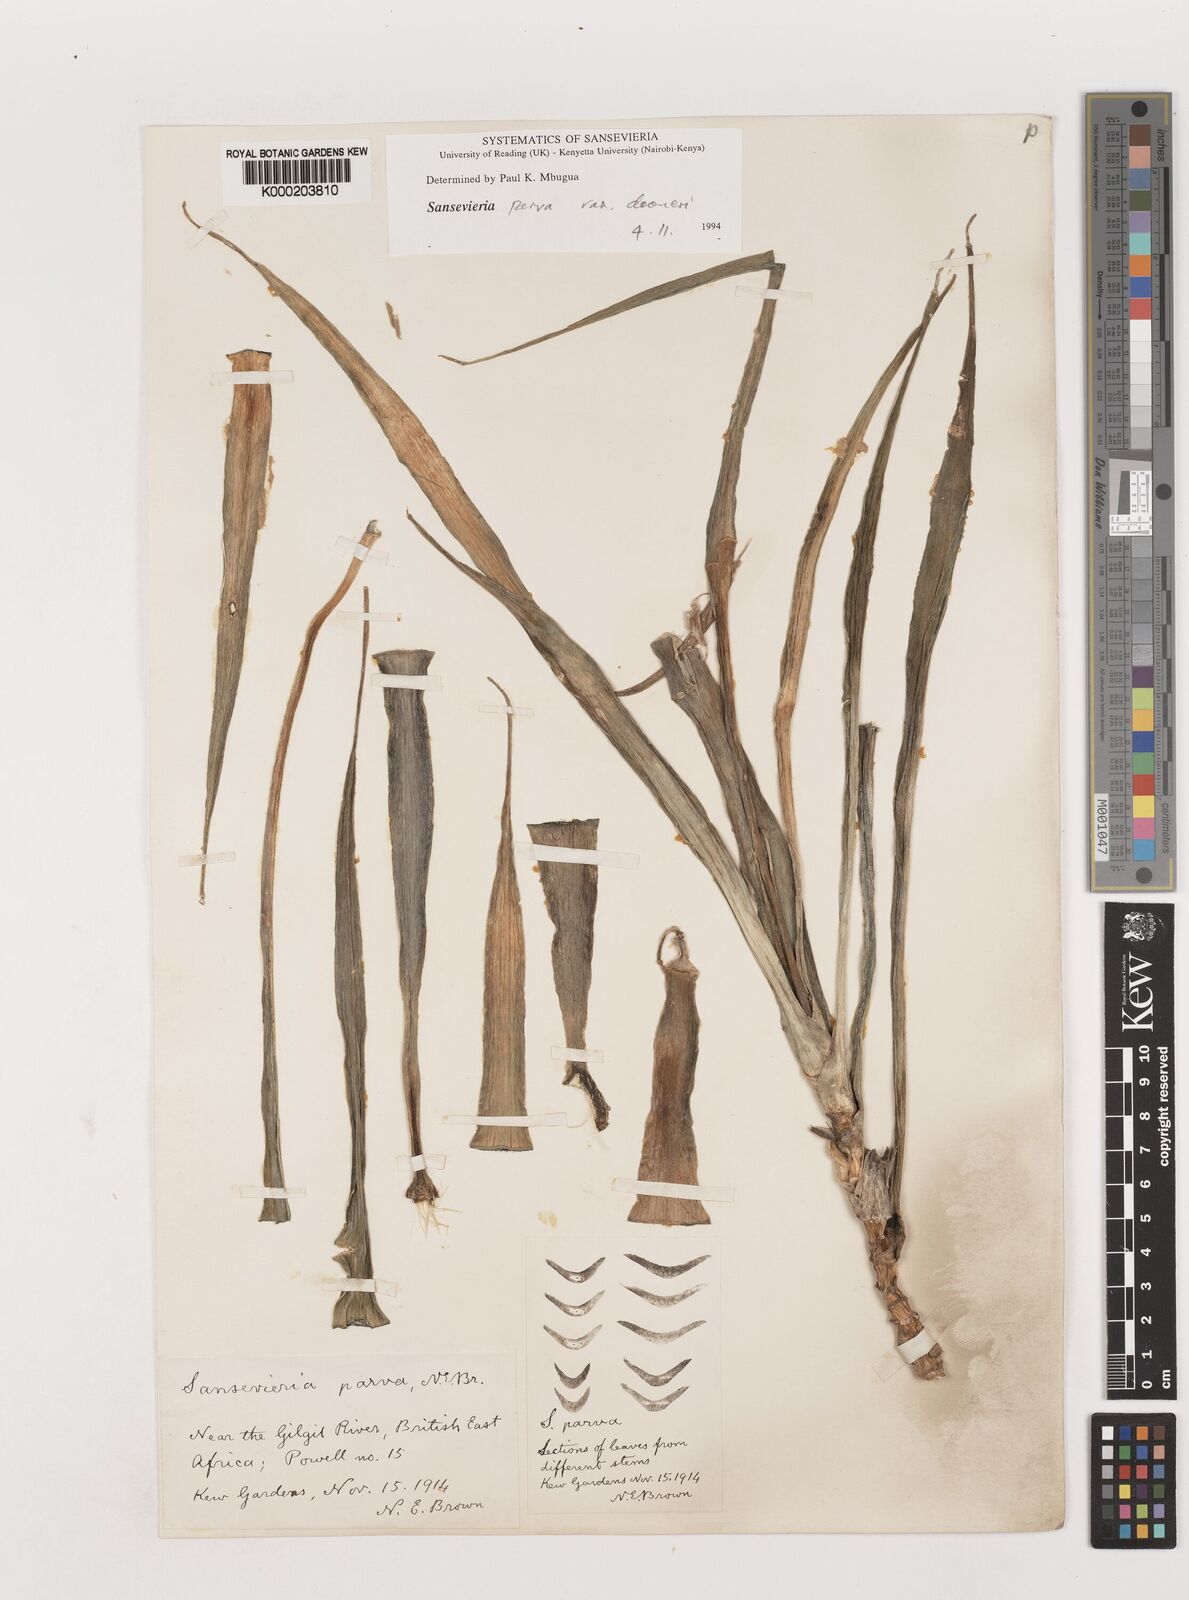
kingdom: Plantae
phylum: Tracheophyta
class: Liliopsida
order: Asparagales
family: Asparagaceae
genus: Dracaena
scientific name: Dracaena parva
